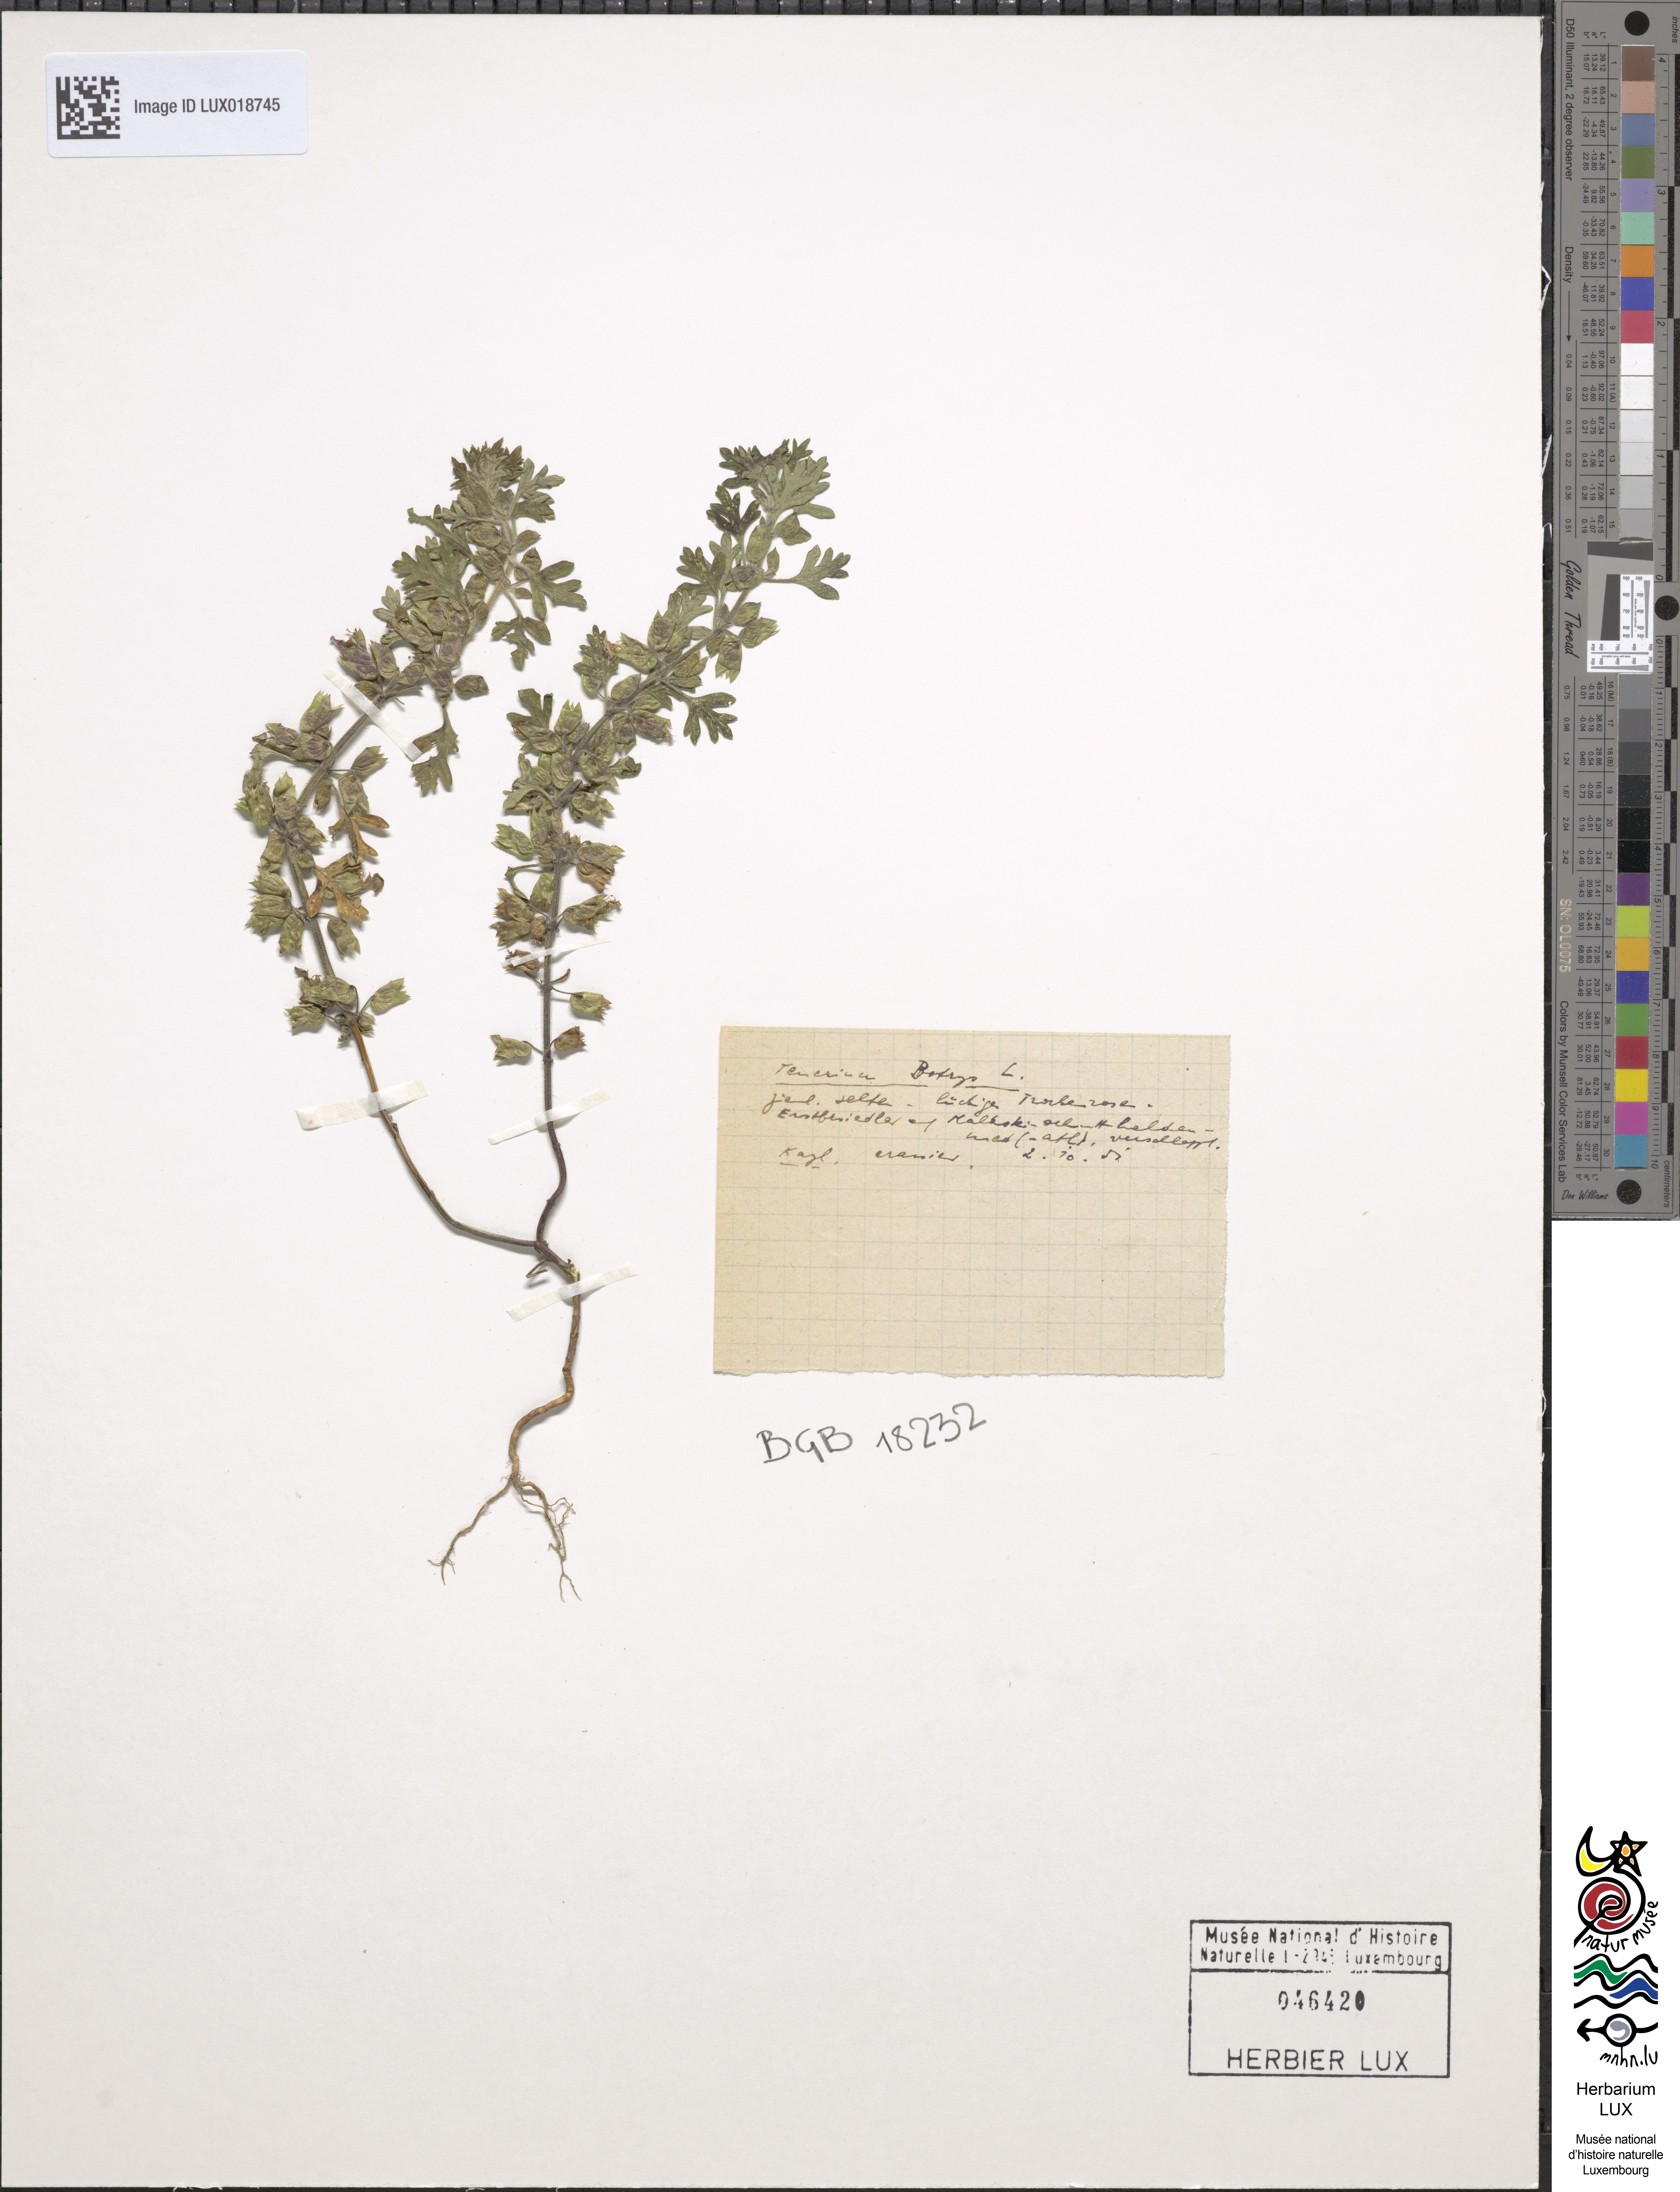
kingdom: Plantae
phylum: Tracheophyta
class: Magnoliopsida
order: Caryophyllales
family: Amaranthaceae
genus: Dysphania
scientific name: Dysphania botrys
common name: Feather-geranium
